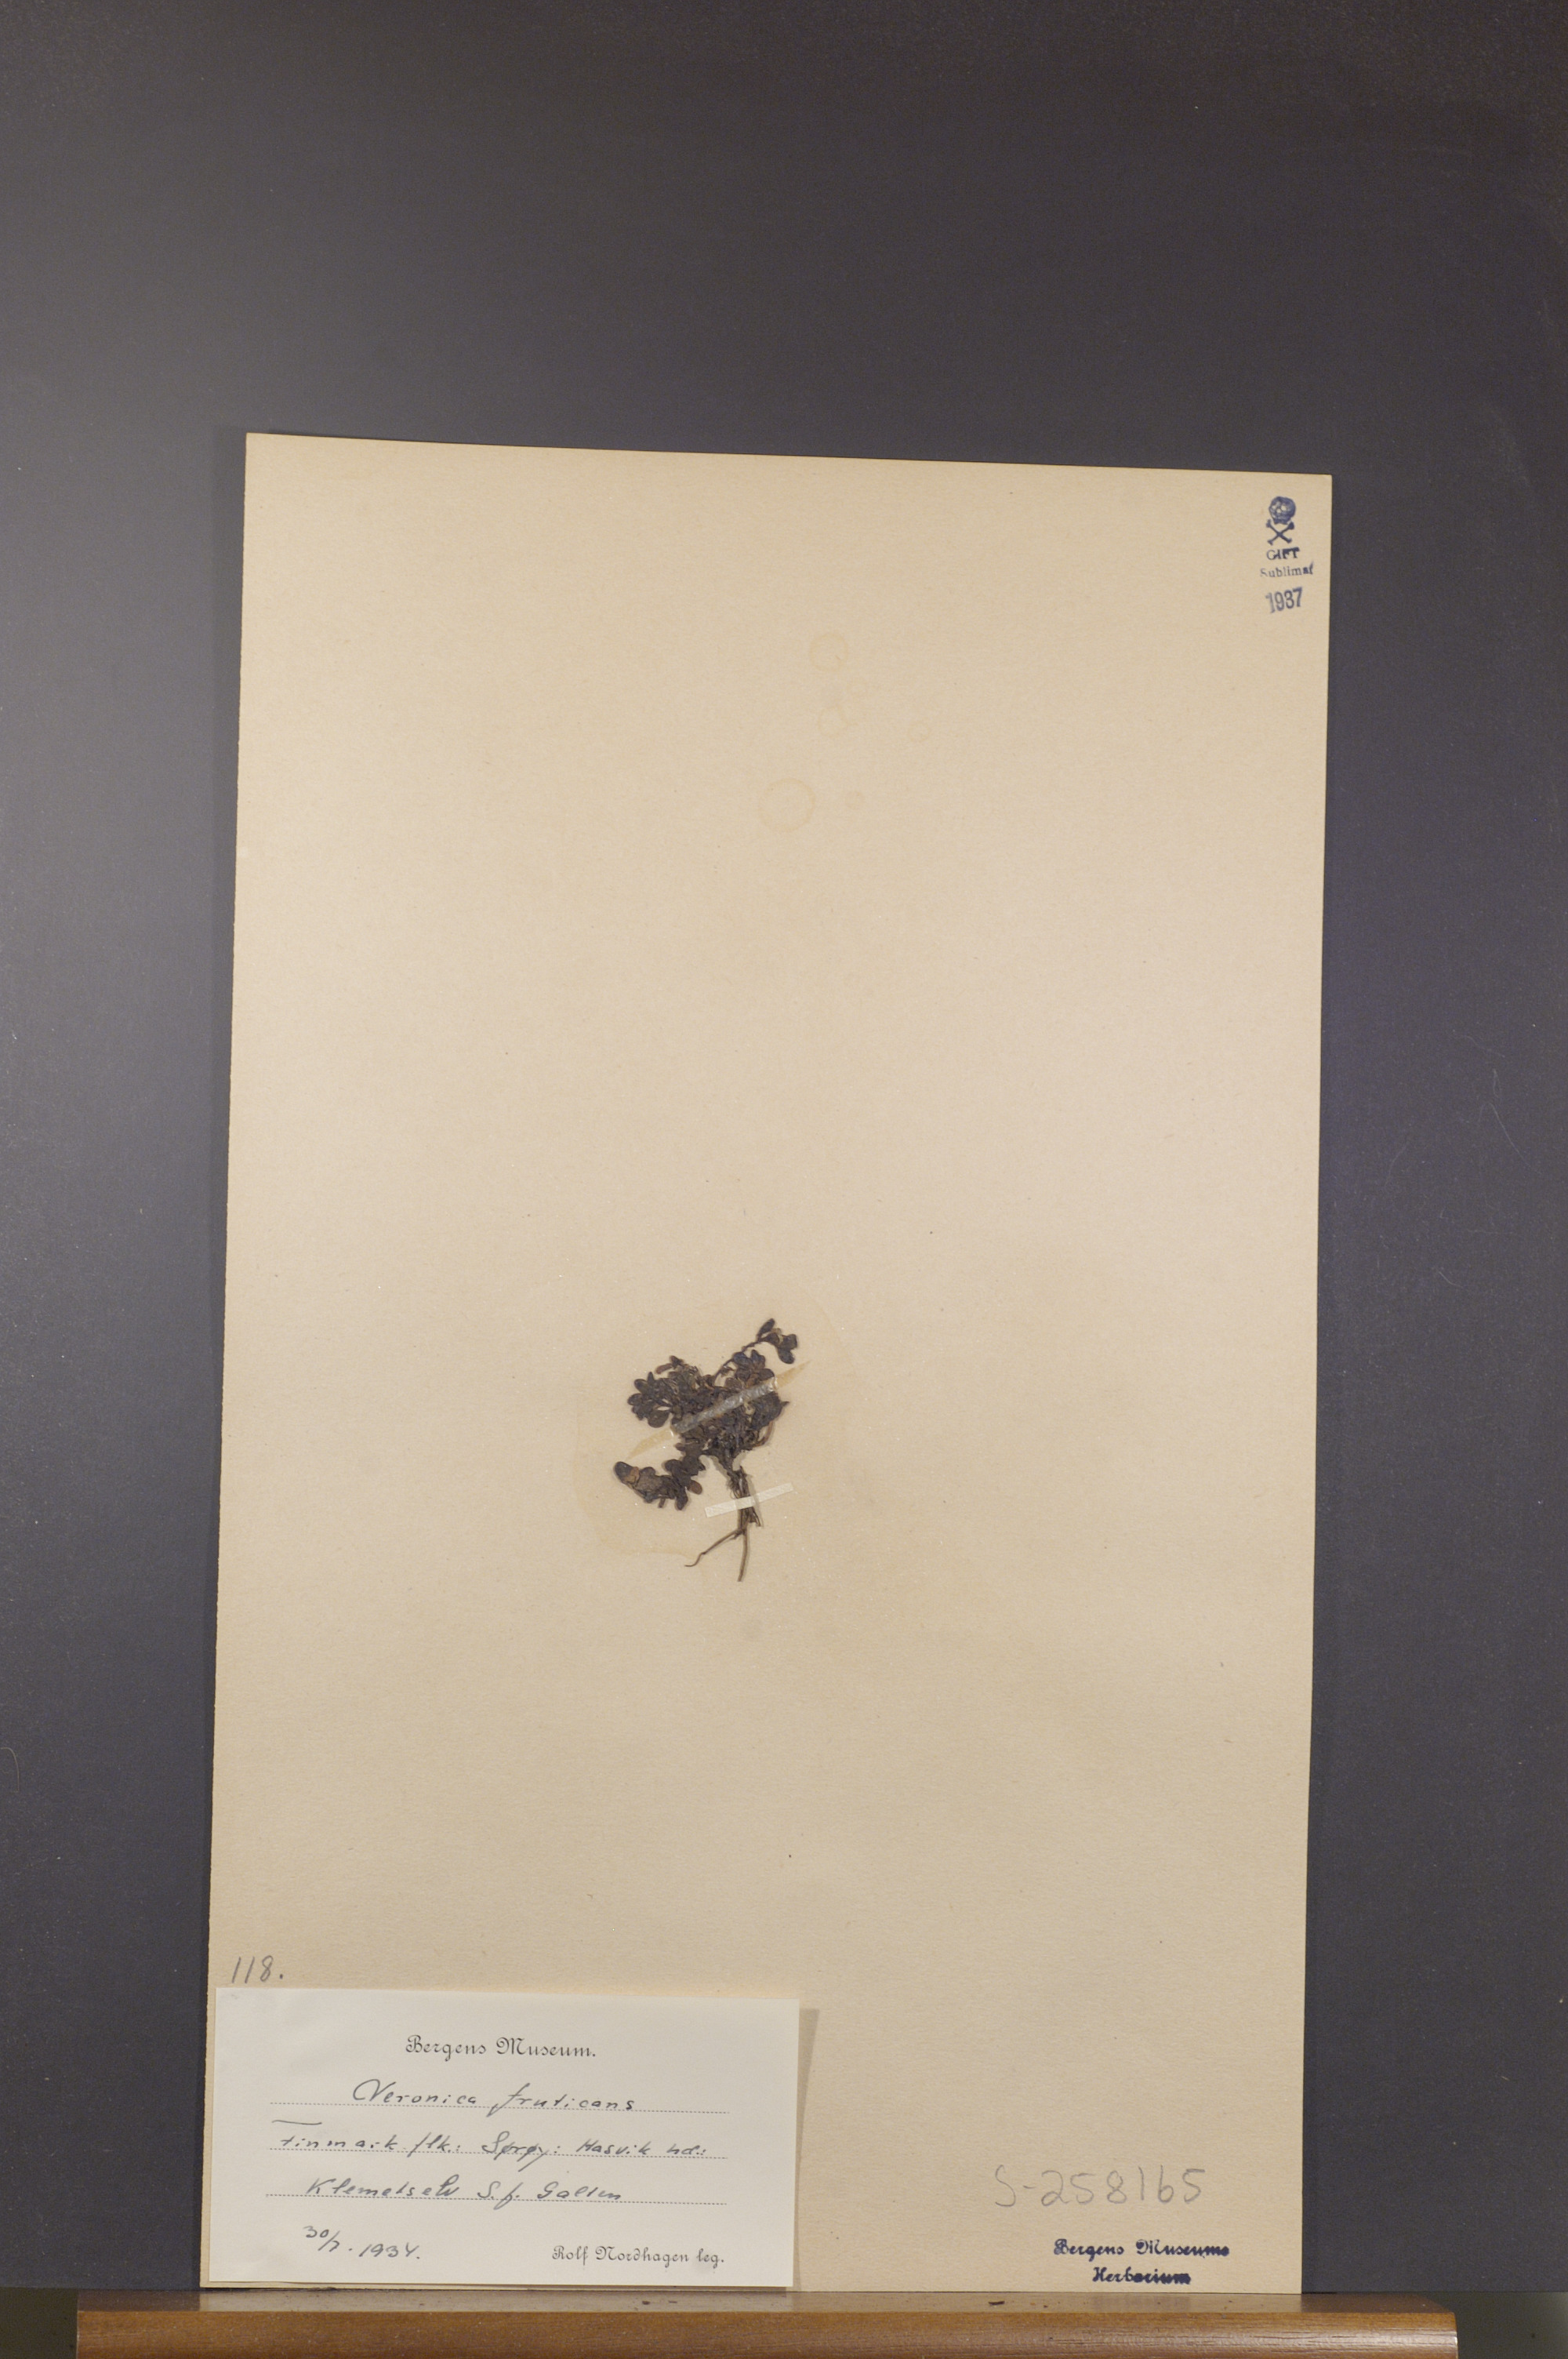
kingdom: Plantae
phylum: Tracheophyta
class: Magnoliopsida
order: Lamiales
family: Plantaginaceae
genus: Veronica
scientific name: Veronica fruticans
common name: Rock speedwell
